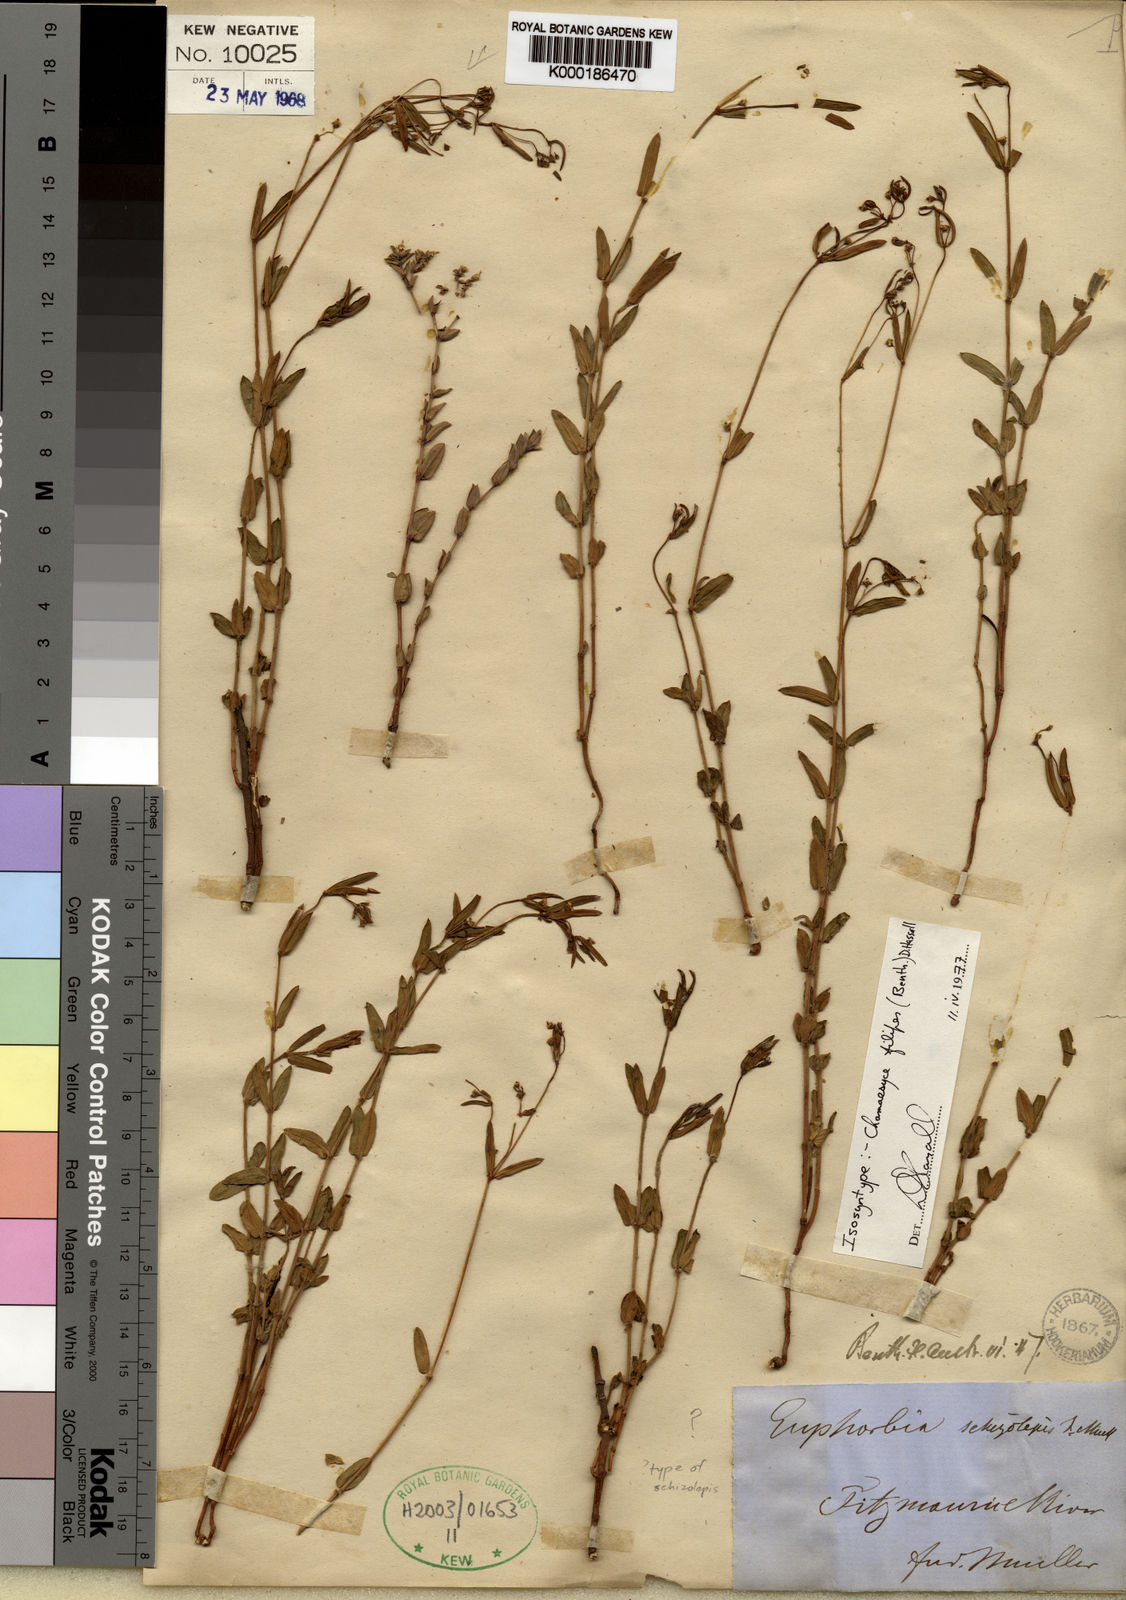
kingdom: Plantae
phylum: Tracheophyta
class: Magnoliopsida
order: Malpighiales
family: Euphorbiaceae
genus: Euphorbia
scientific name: Euphorbia mitchelliana
